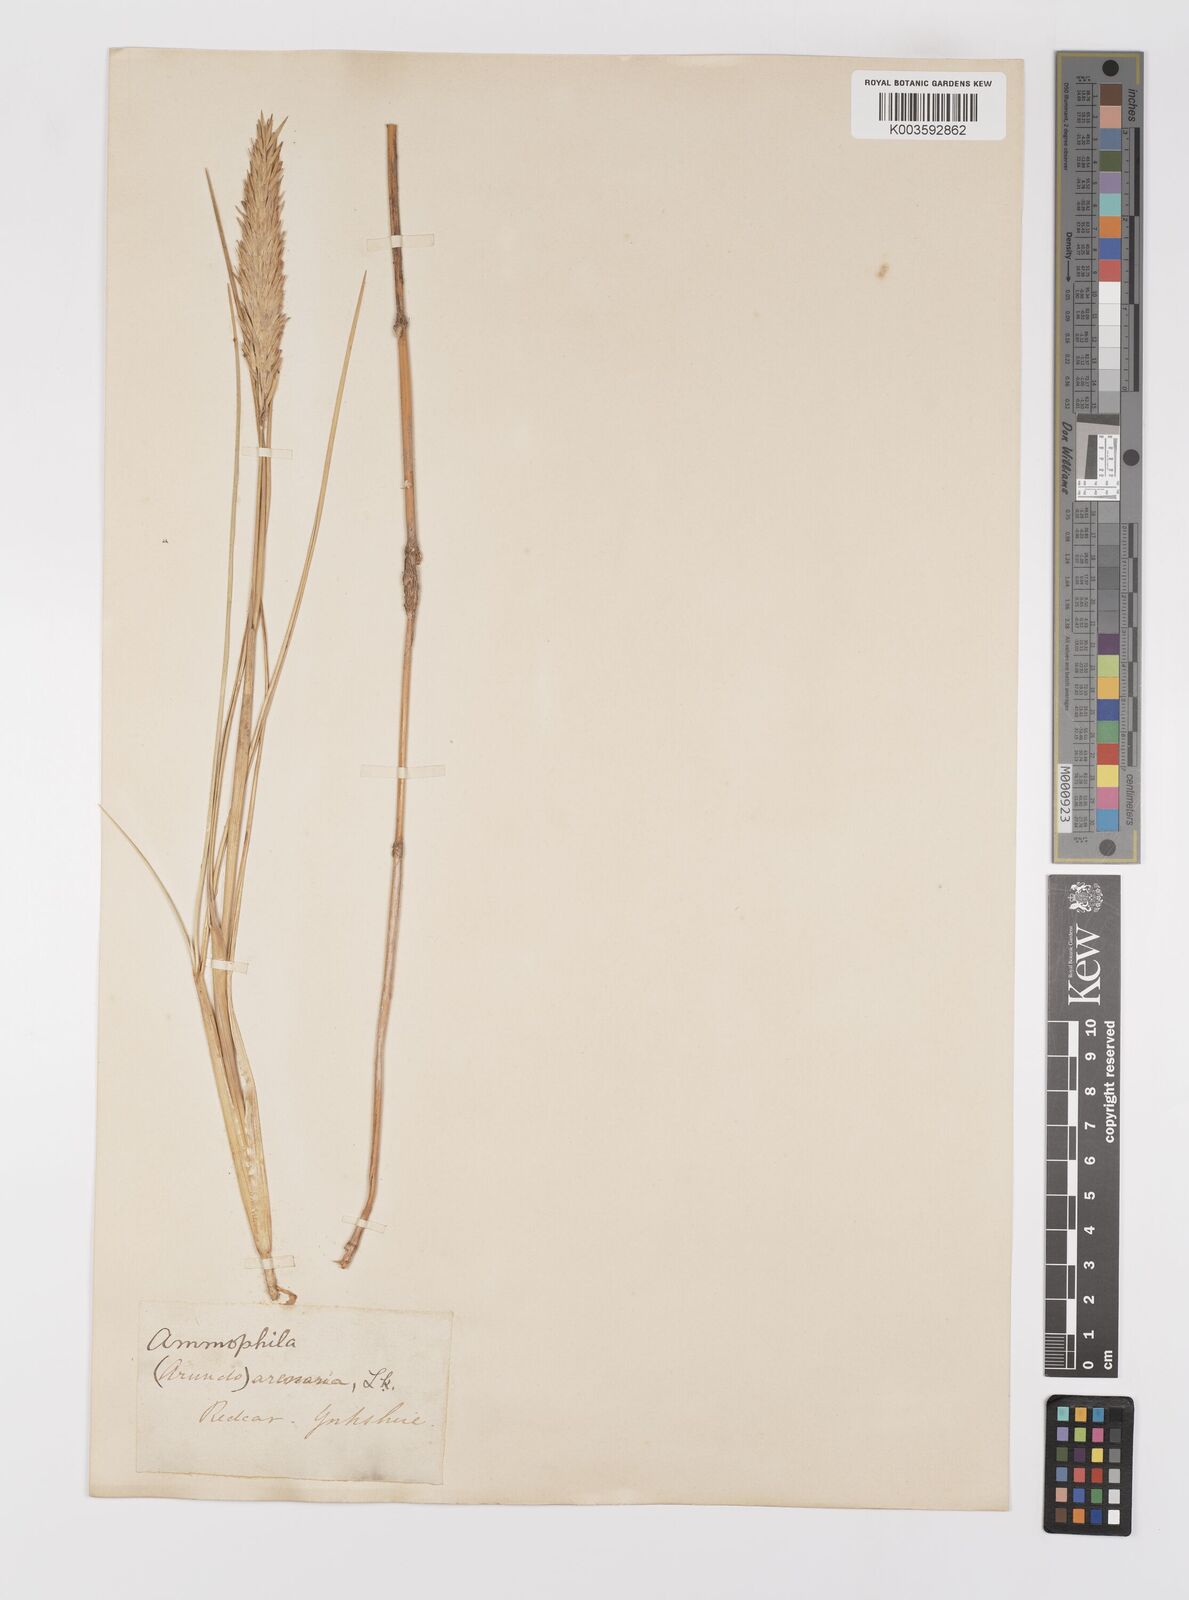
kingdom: Plantae
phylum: Tracheophyta
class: Liliopsida
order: Poales
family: Poaceae
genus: Calamagrostis
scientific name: Calamagrostis arenaria
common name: European beachgrass
